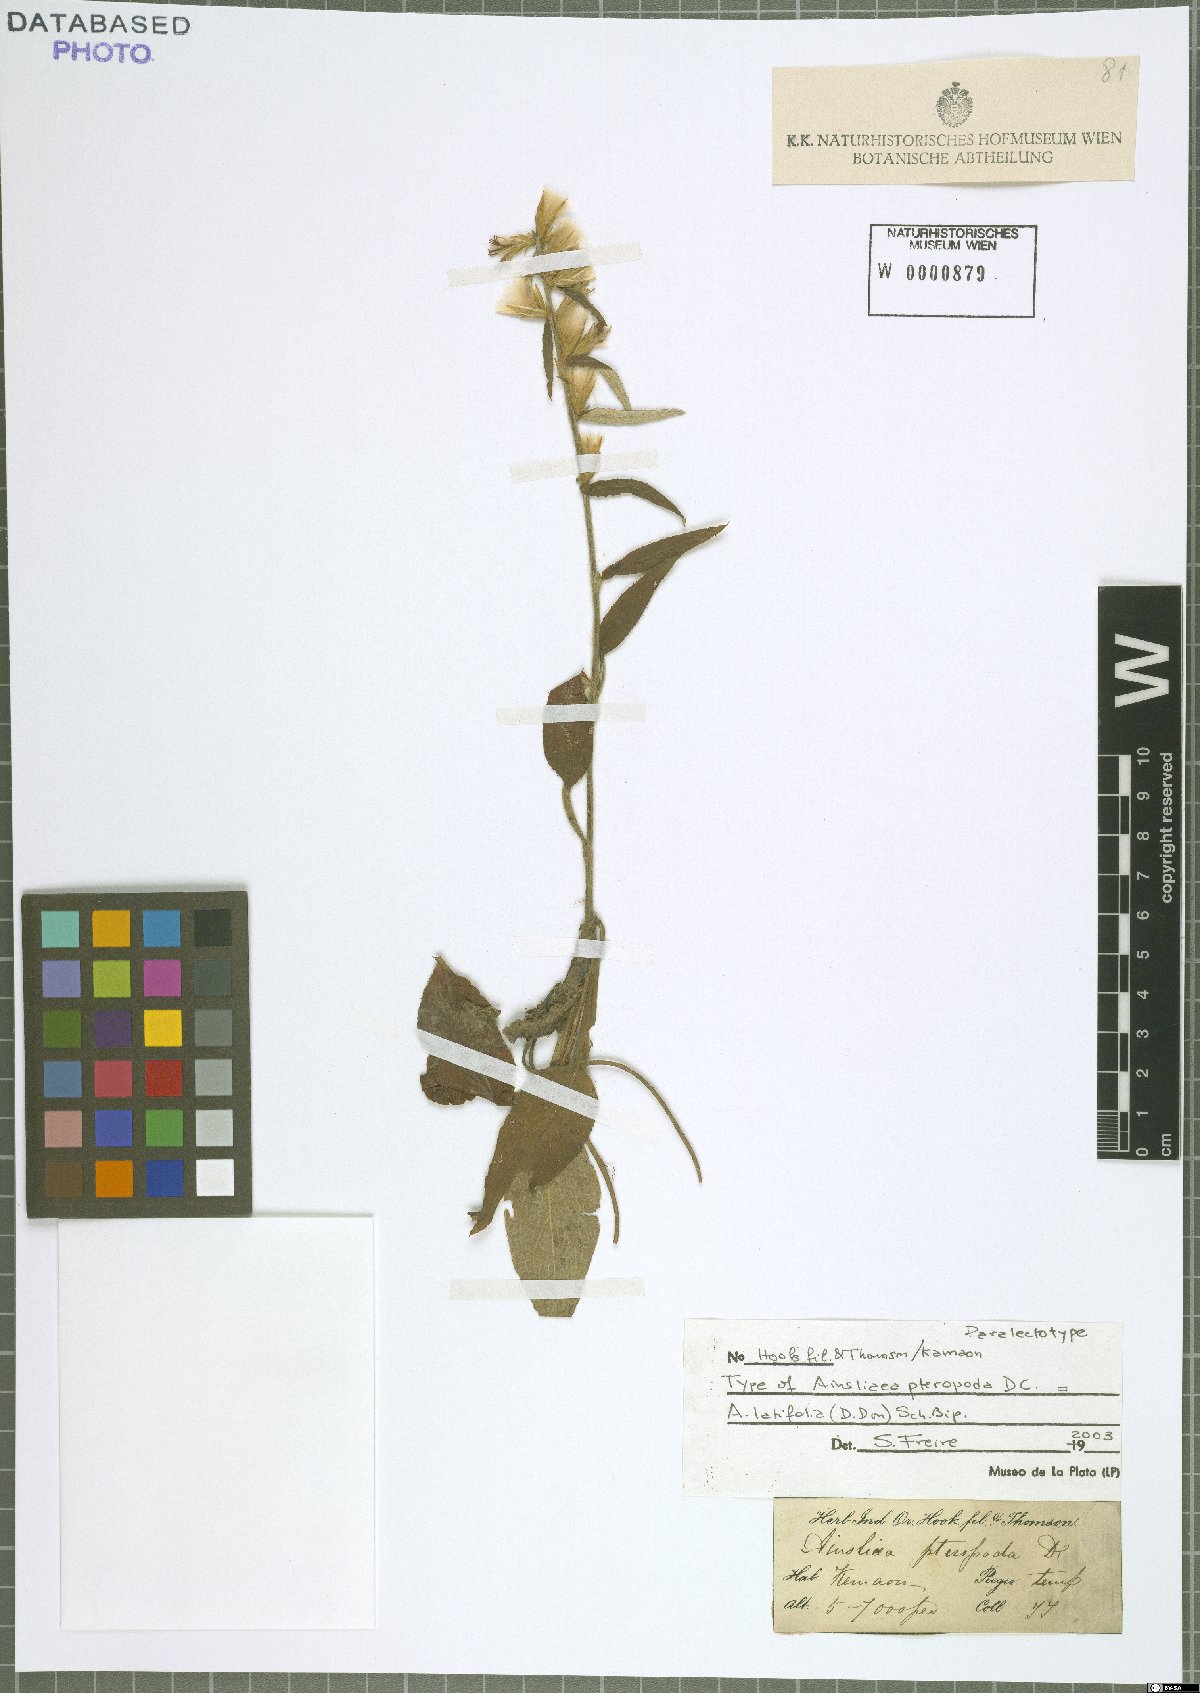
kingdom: Plantae
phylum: Tracheophyta
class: Magnoliopsida
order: Asterales
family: Asteraceae
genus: Ainsliaea
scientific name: Ainsliaea latifolia
